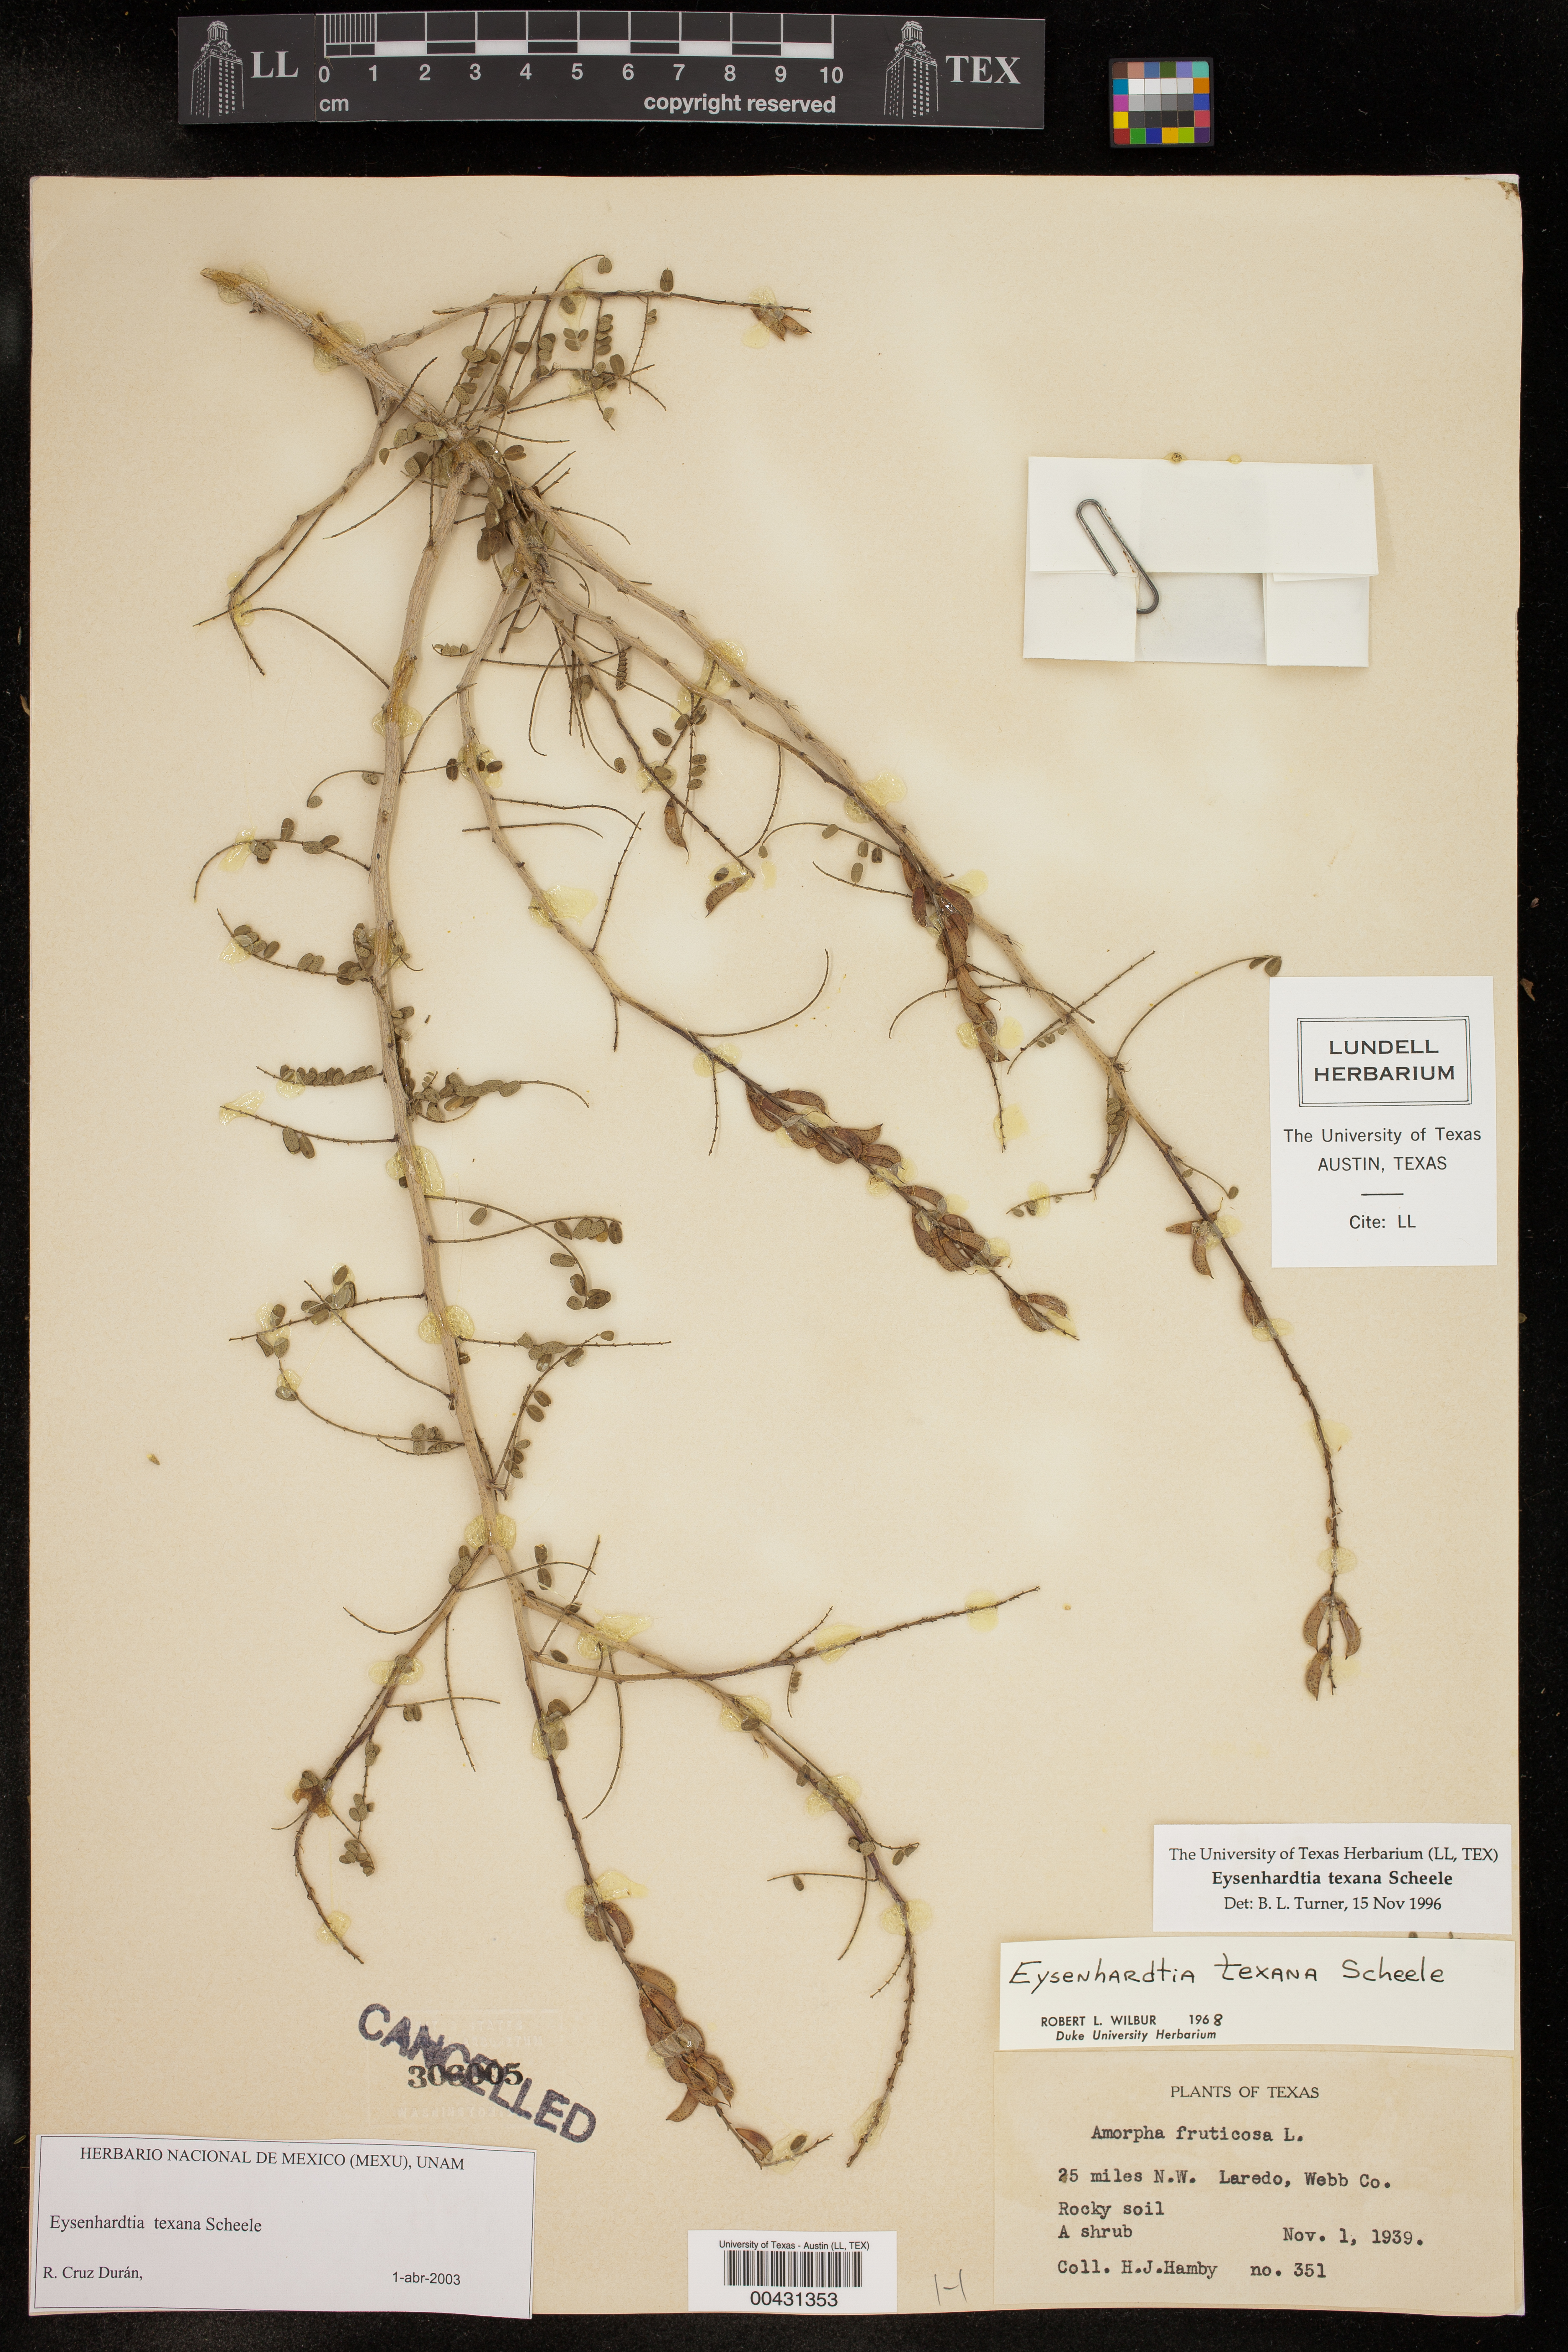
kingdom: Plantae
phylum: Tracheophyta
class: Magnoliopsida
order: Fabales
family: Fabaceae
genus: Eysenhardtia
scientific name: Eysenhardtia texana
